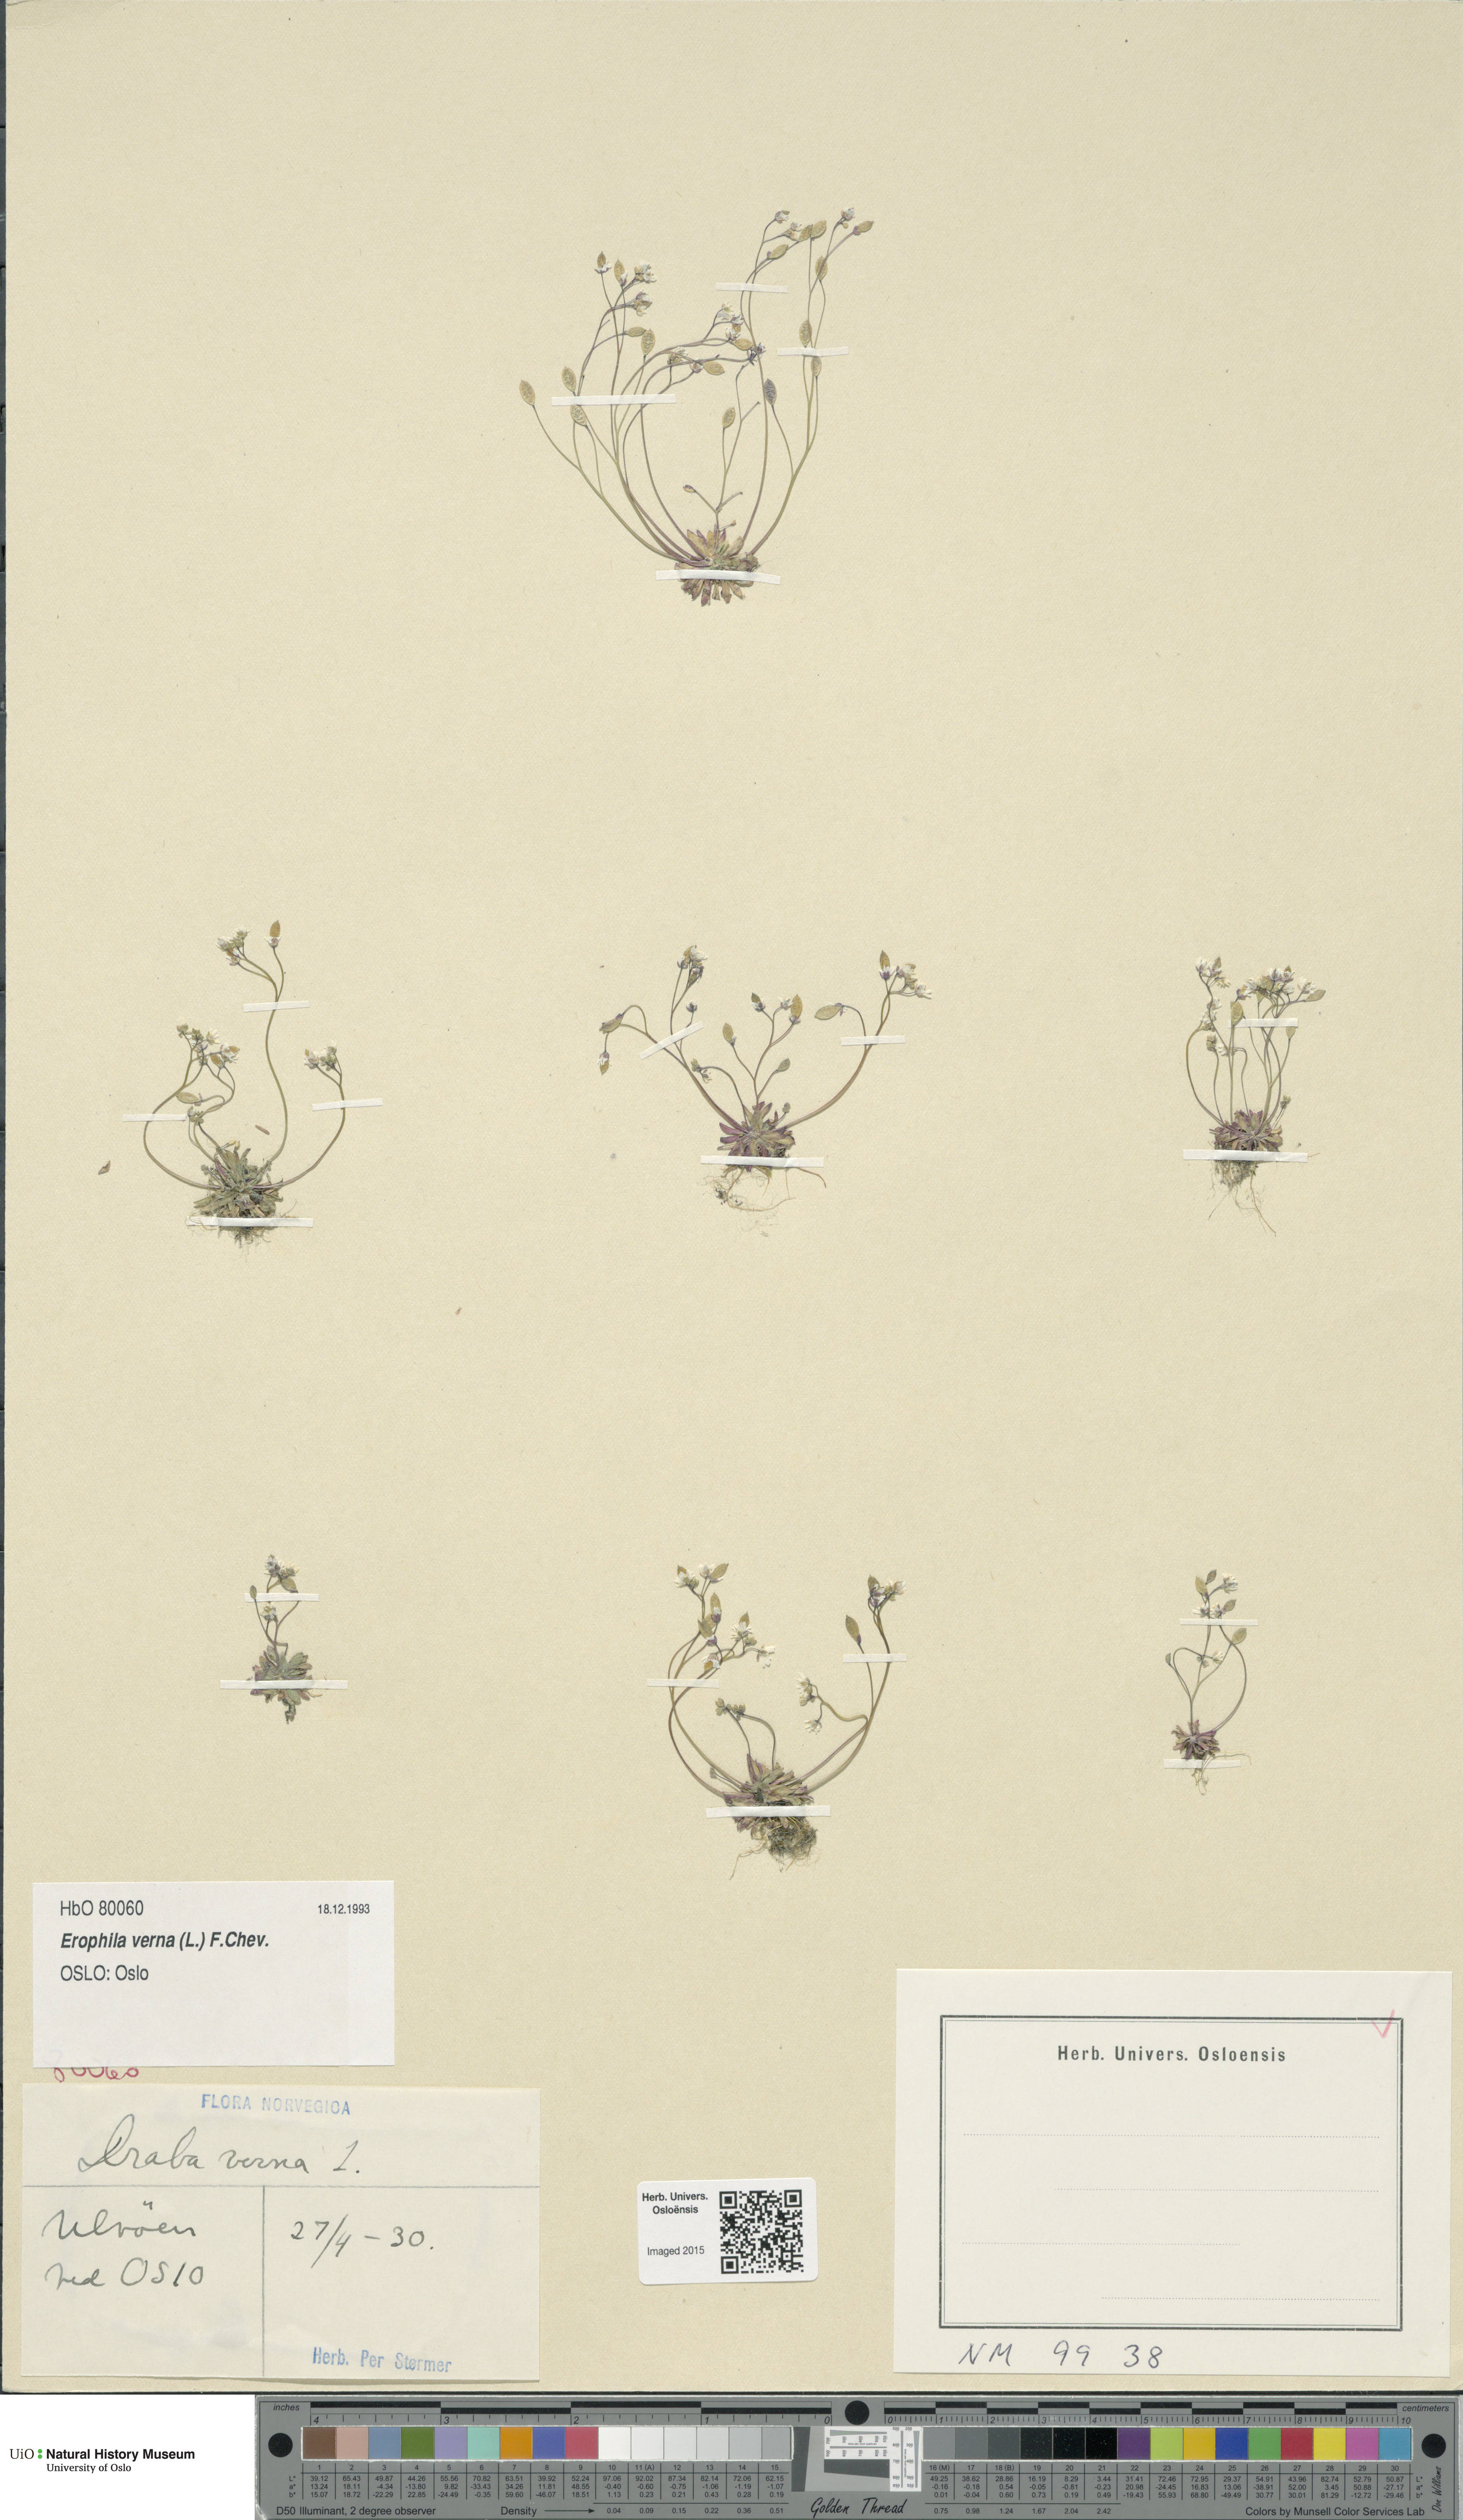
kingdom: Plantae
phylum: Tracheophyta
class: Magnoliopsida
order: Brassicales
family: Brassicaceae
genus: Draba
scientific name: Draba verna
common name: Spring draba
